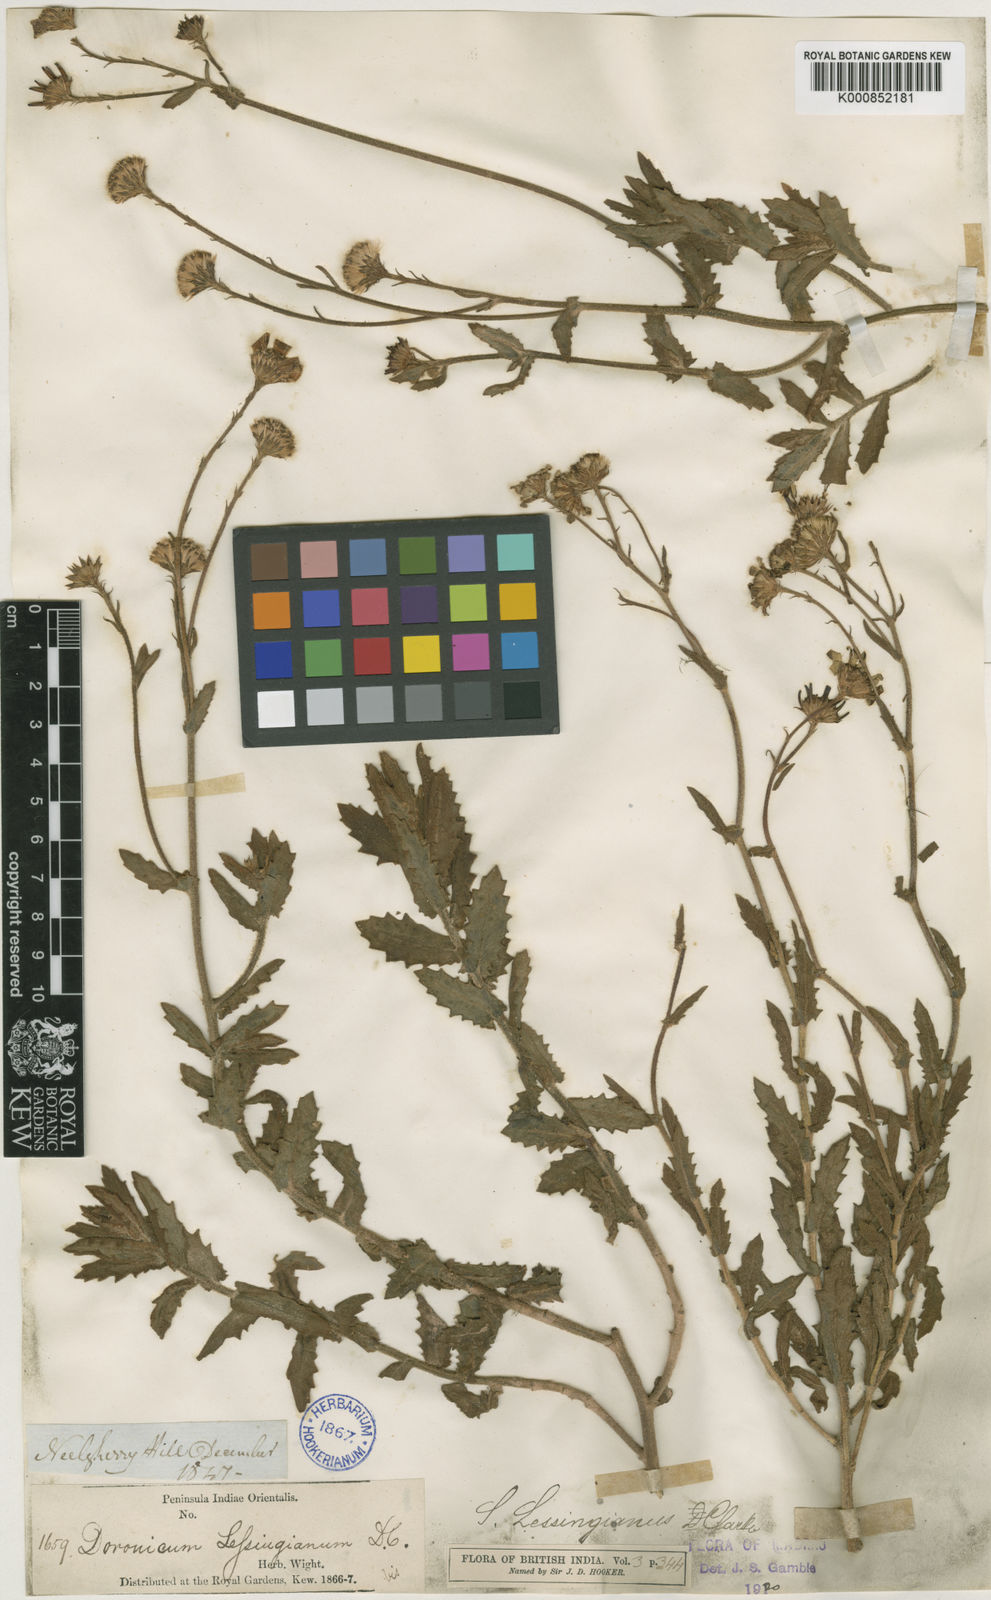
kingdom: Plantae
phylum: Tracheophyta
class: Magnoliopsida
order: Asterales
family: Asteraceae
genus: Senecio
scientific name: Senecio lawsonii
